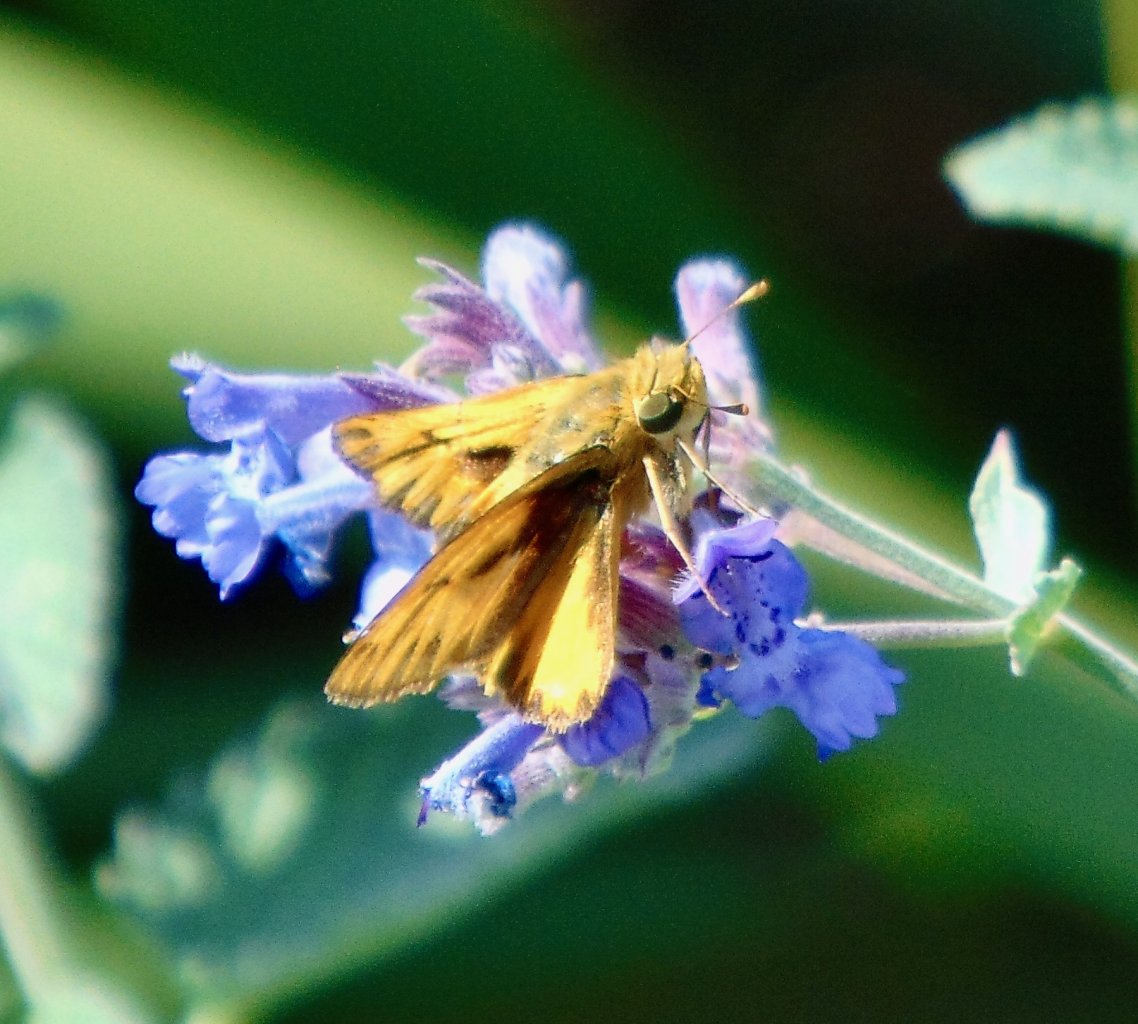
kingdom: Animalia
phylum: Arthropoda
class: Insecta
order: Lepidoptera
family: Hesperiidae
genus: Hylephila
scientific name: Hylephila phyleus
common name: Fiery Skipper
